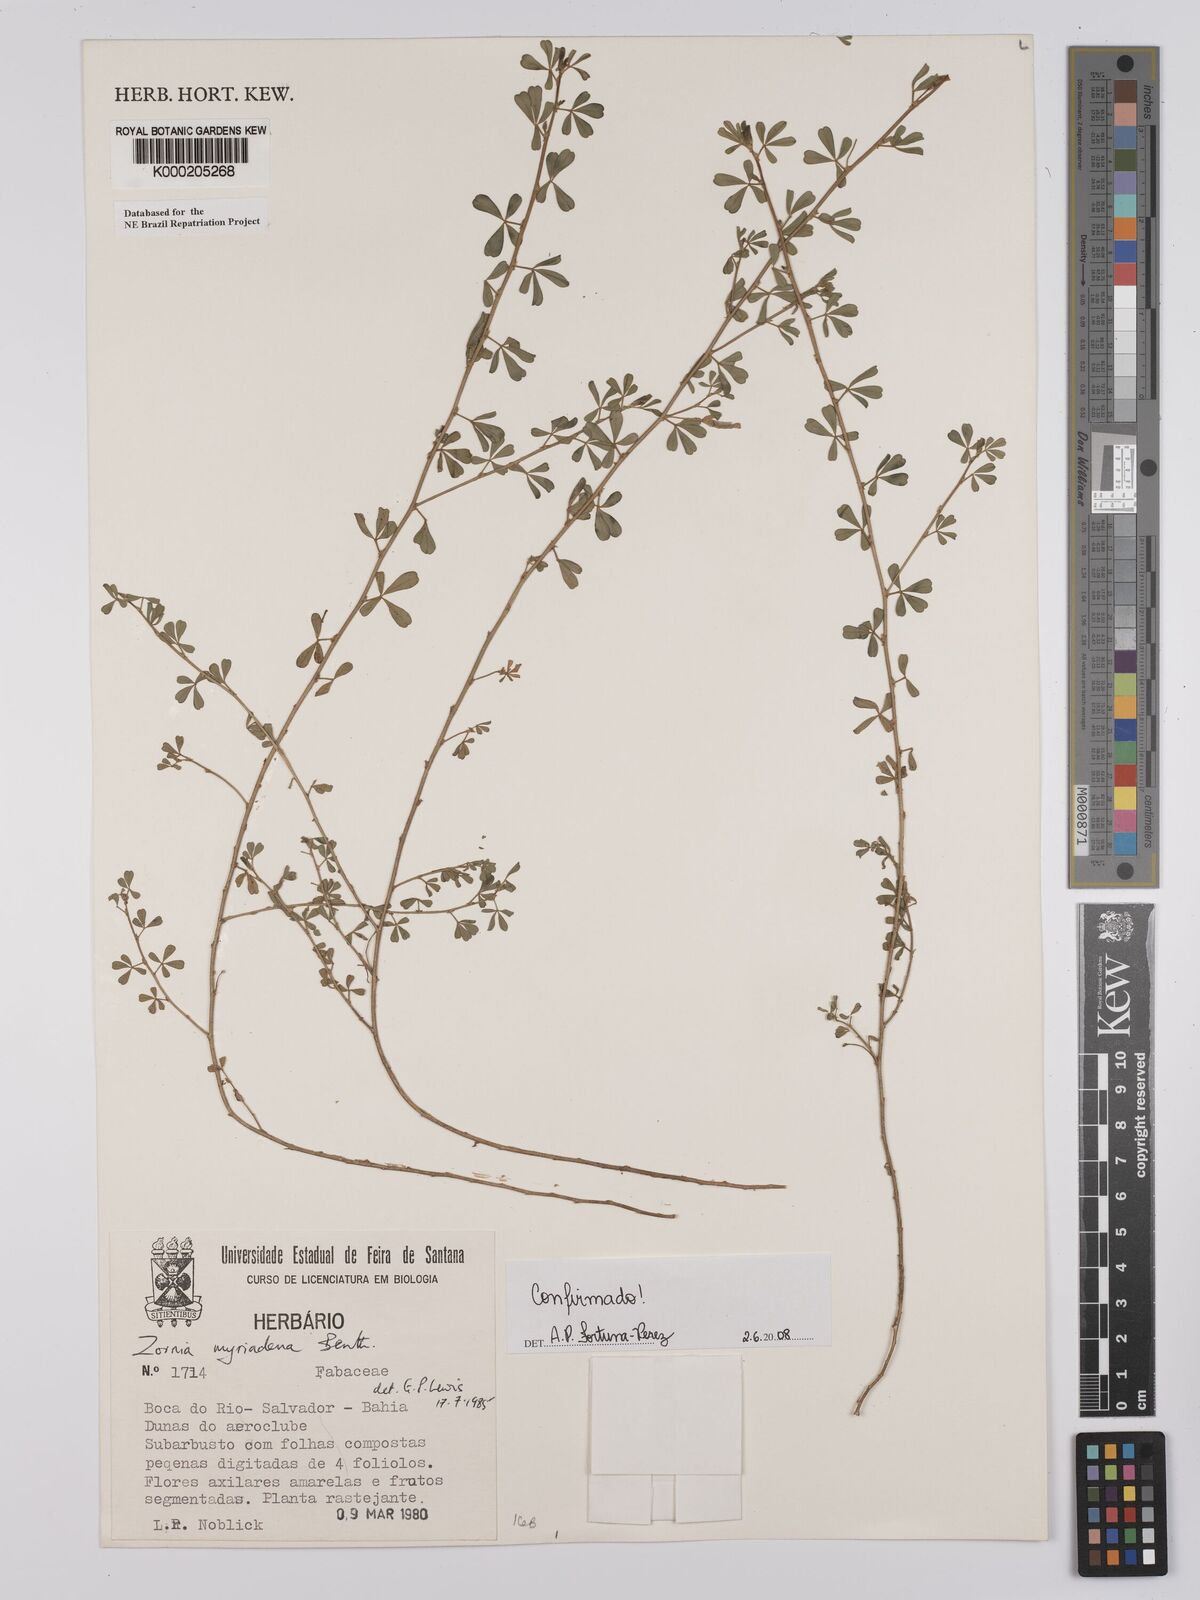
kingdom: Plantae
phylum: Tracheophyta
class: Magnoliopsida
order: Fabales
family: Fabaceae
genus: Zornia
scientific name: Zornia myriadena
